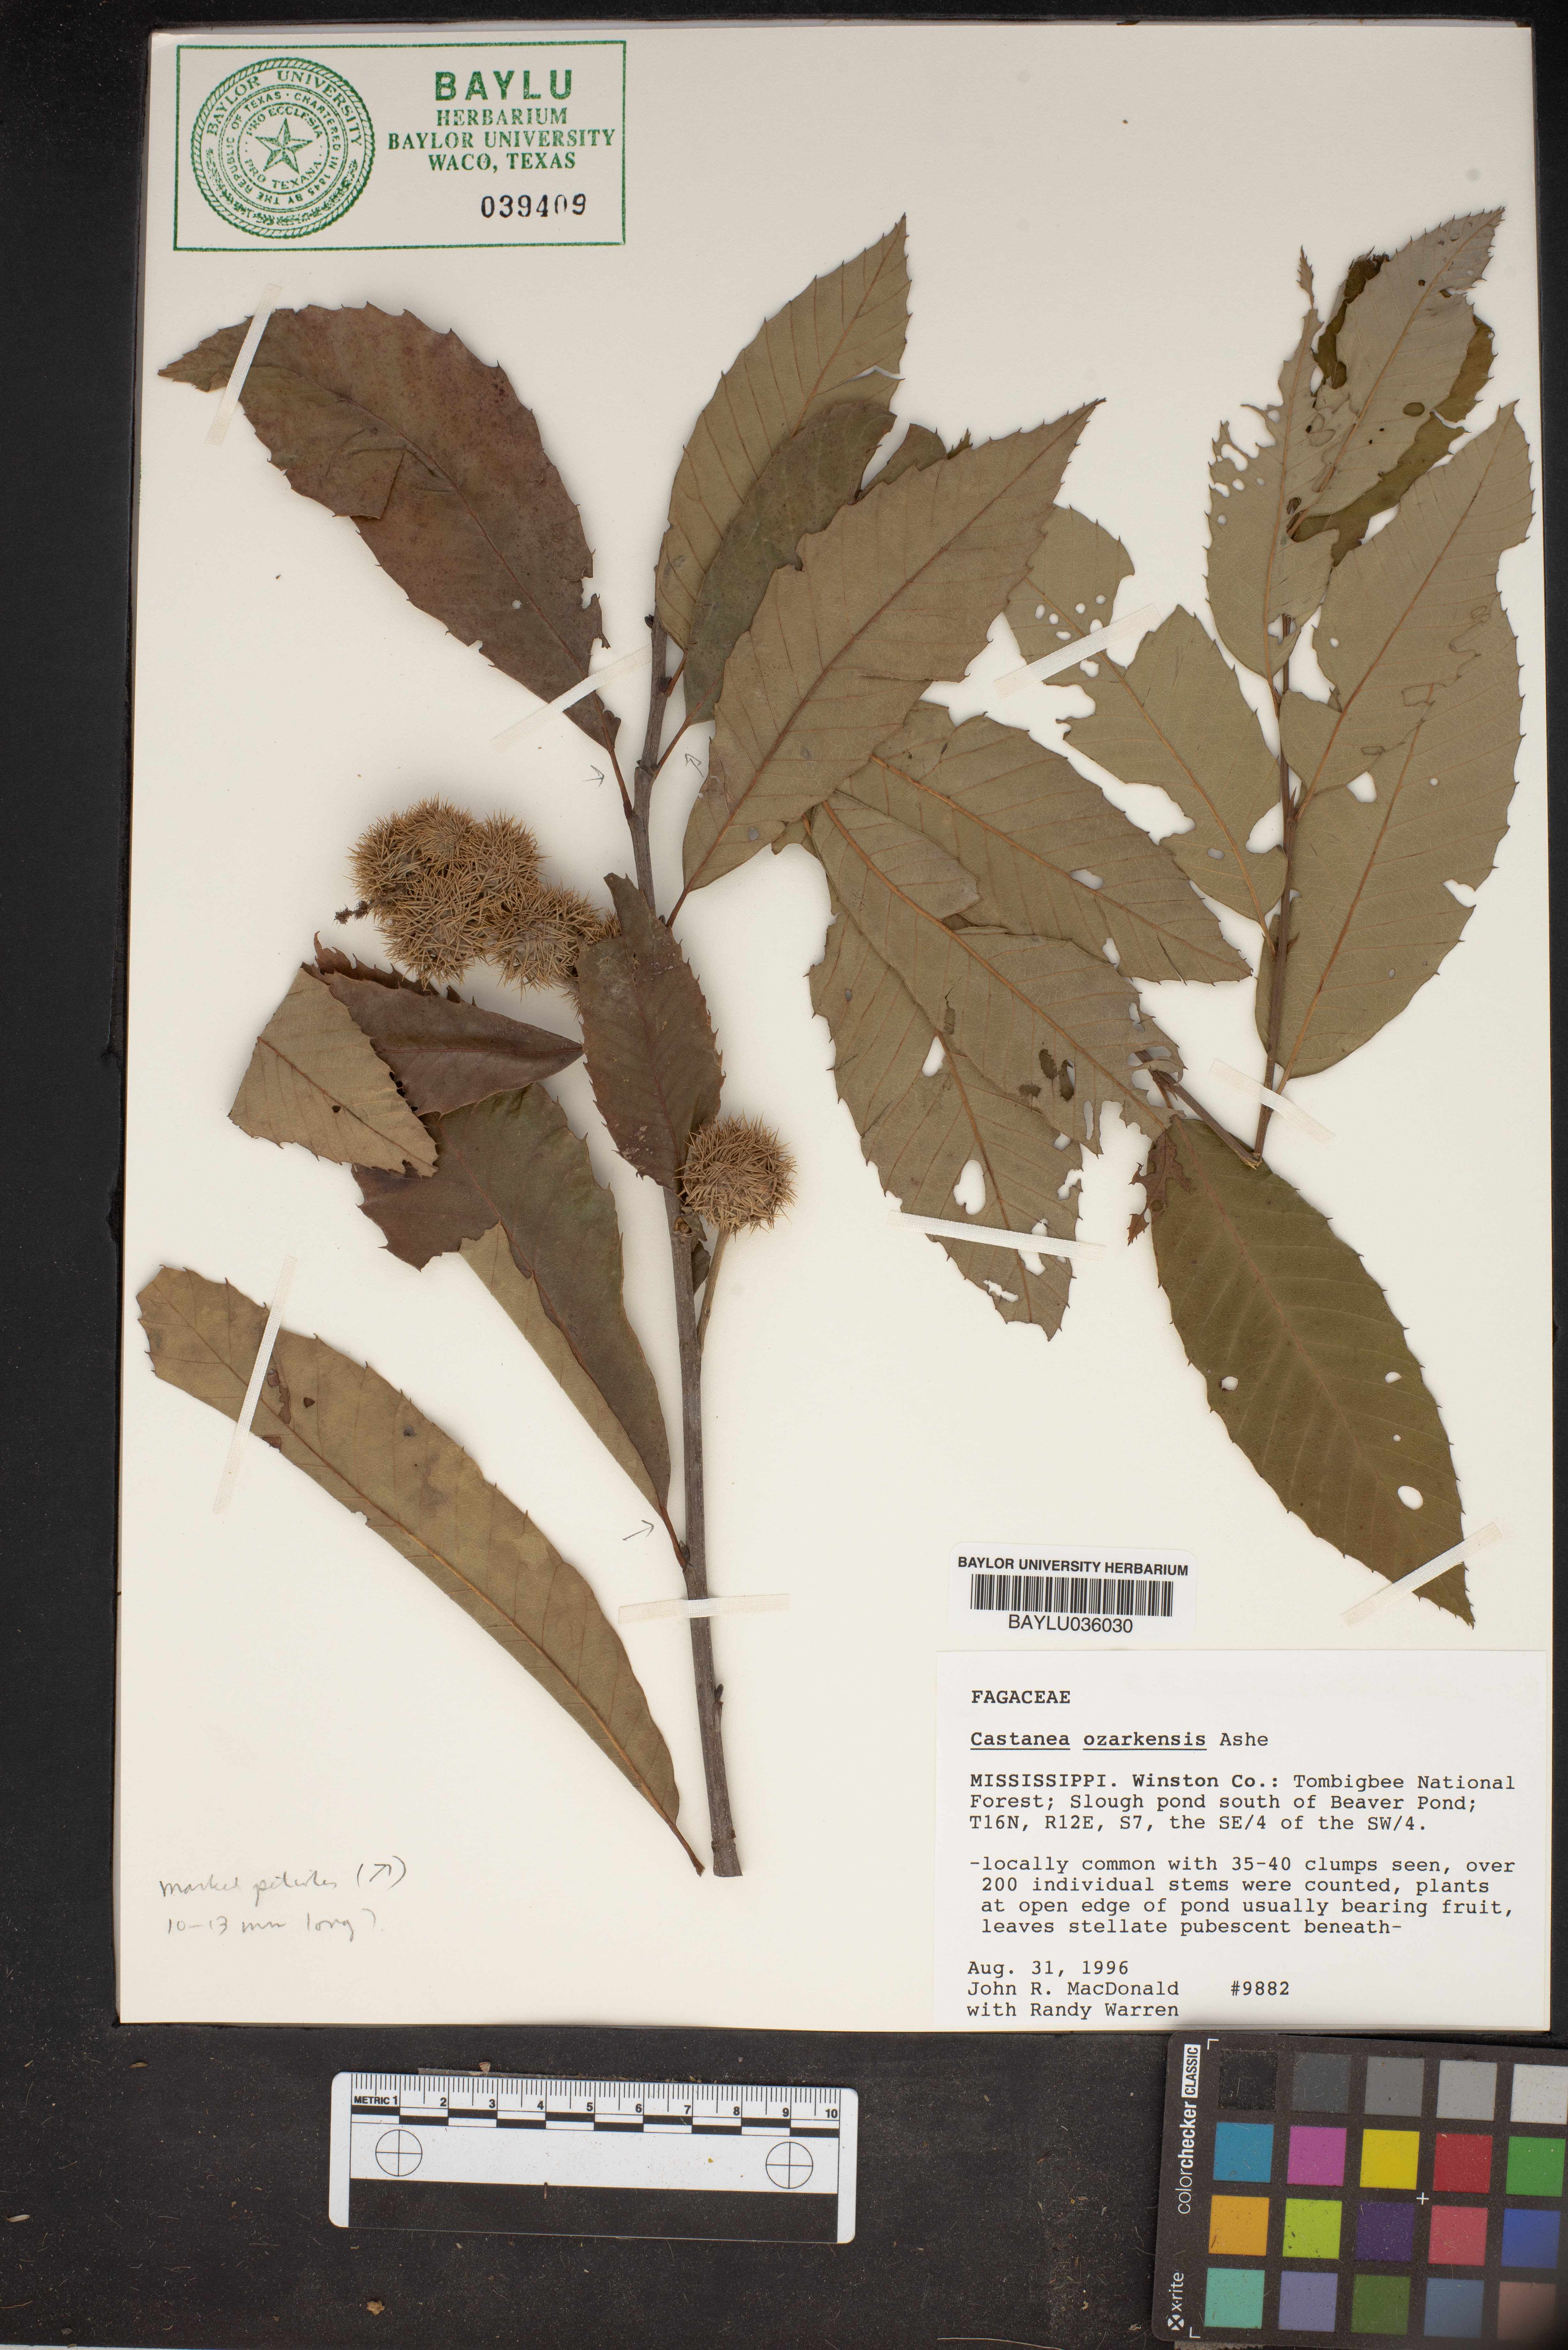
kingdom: Plantae
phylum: Tracheophyta
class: Magnoliopsida
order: Fagales
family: Fagaceae
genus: Castanea
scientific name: Castanea ozarkensis
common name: Ozark chinkapin
